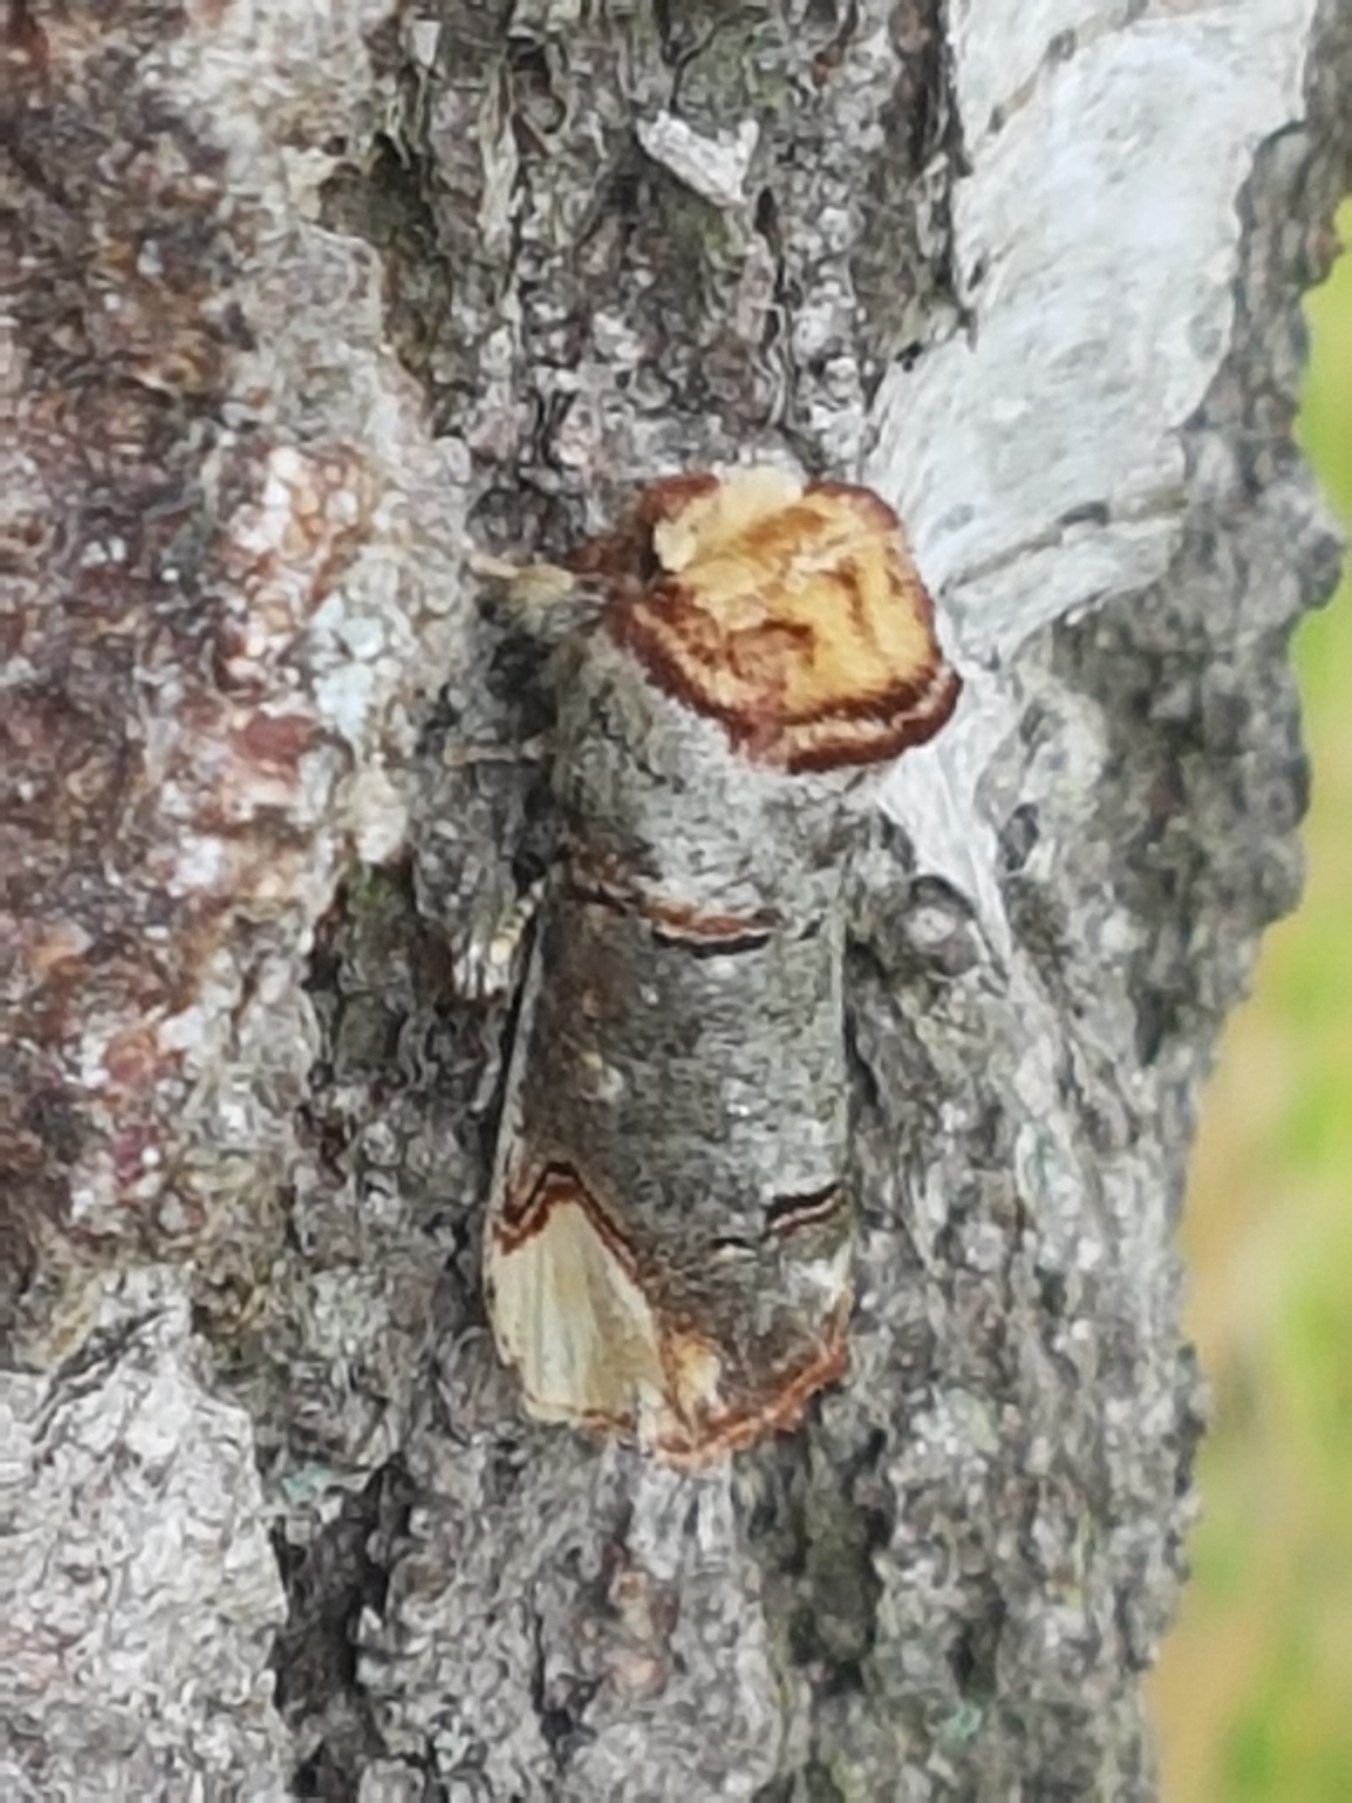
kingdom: Animalia
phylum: Arthropoda
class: Insecta
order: Lepidoptera
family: Notodontidae
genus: Phalera
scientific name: Phalera bucephala
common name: Måneplet
